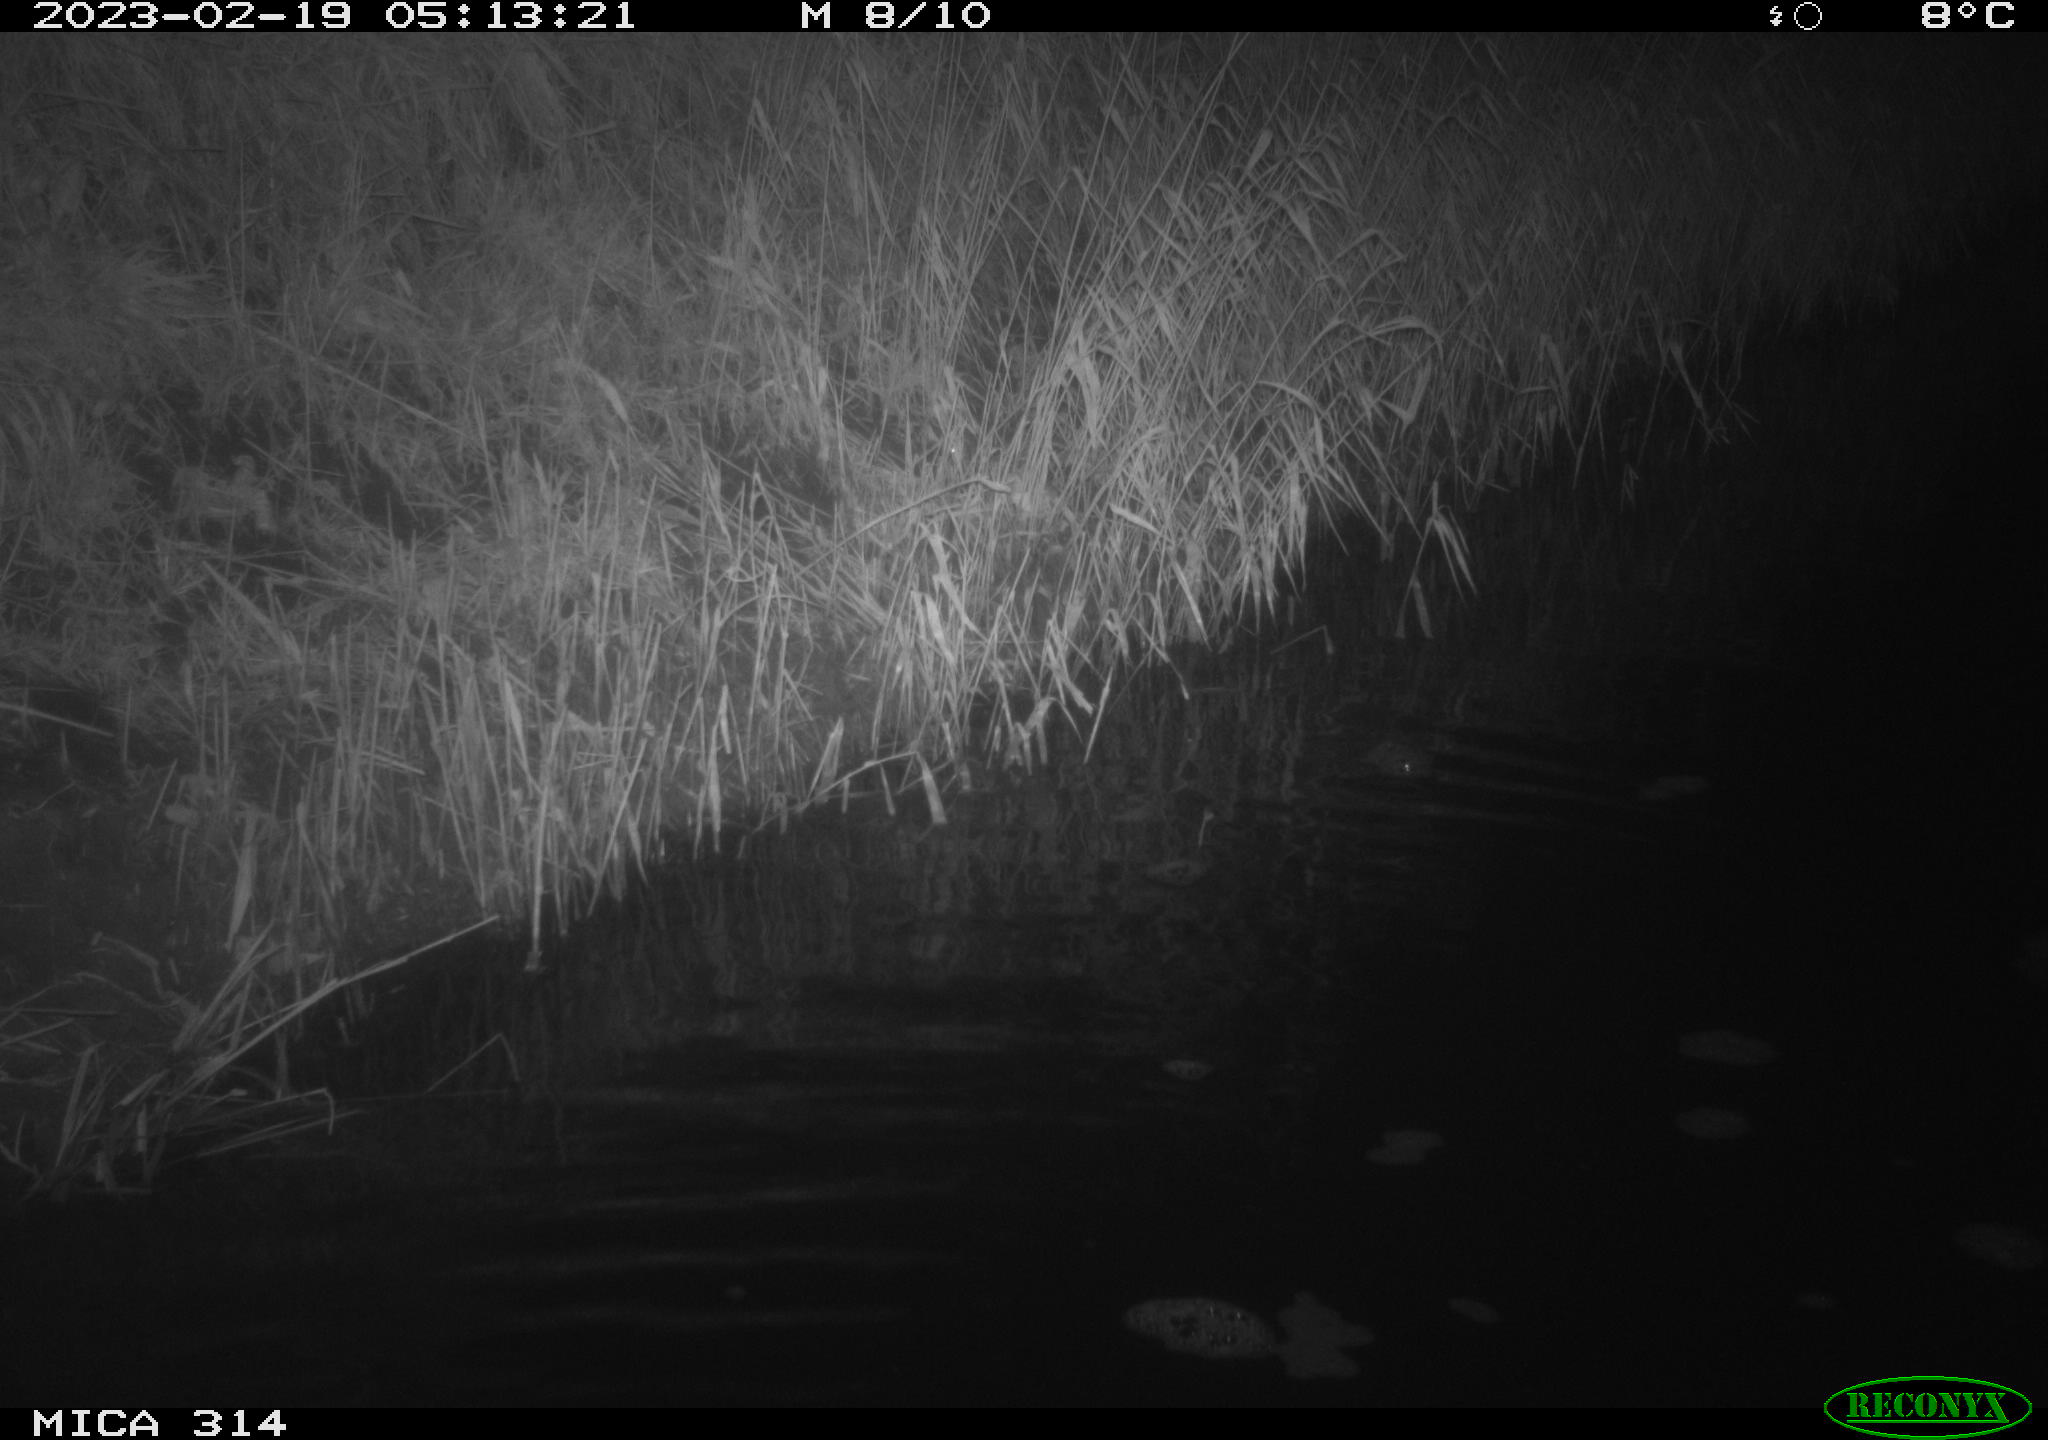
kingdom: Animalia
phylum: Chordata
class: Mammalia
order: Rodentia
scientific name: Rodentia
